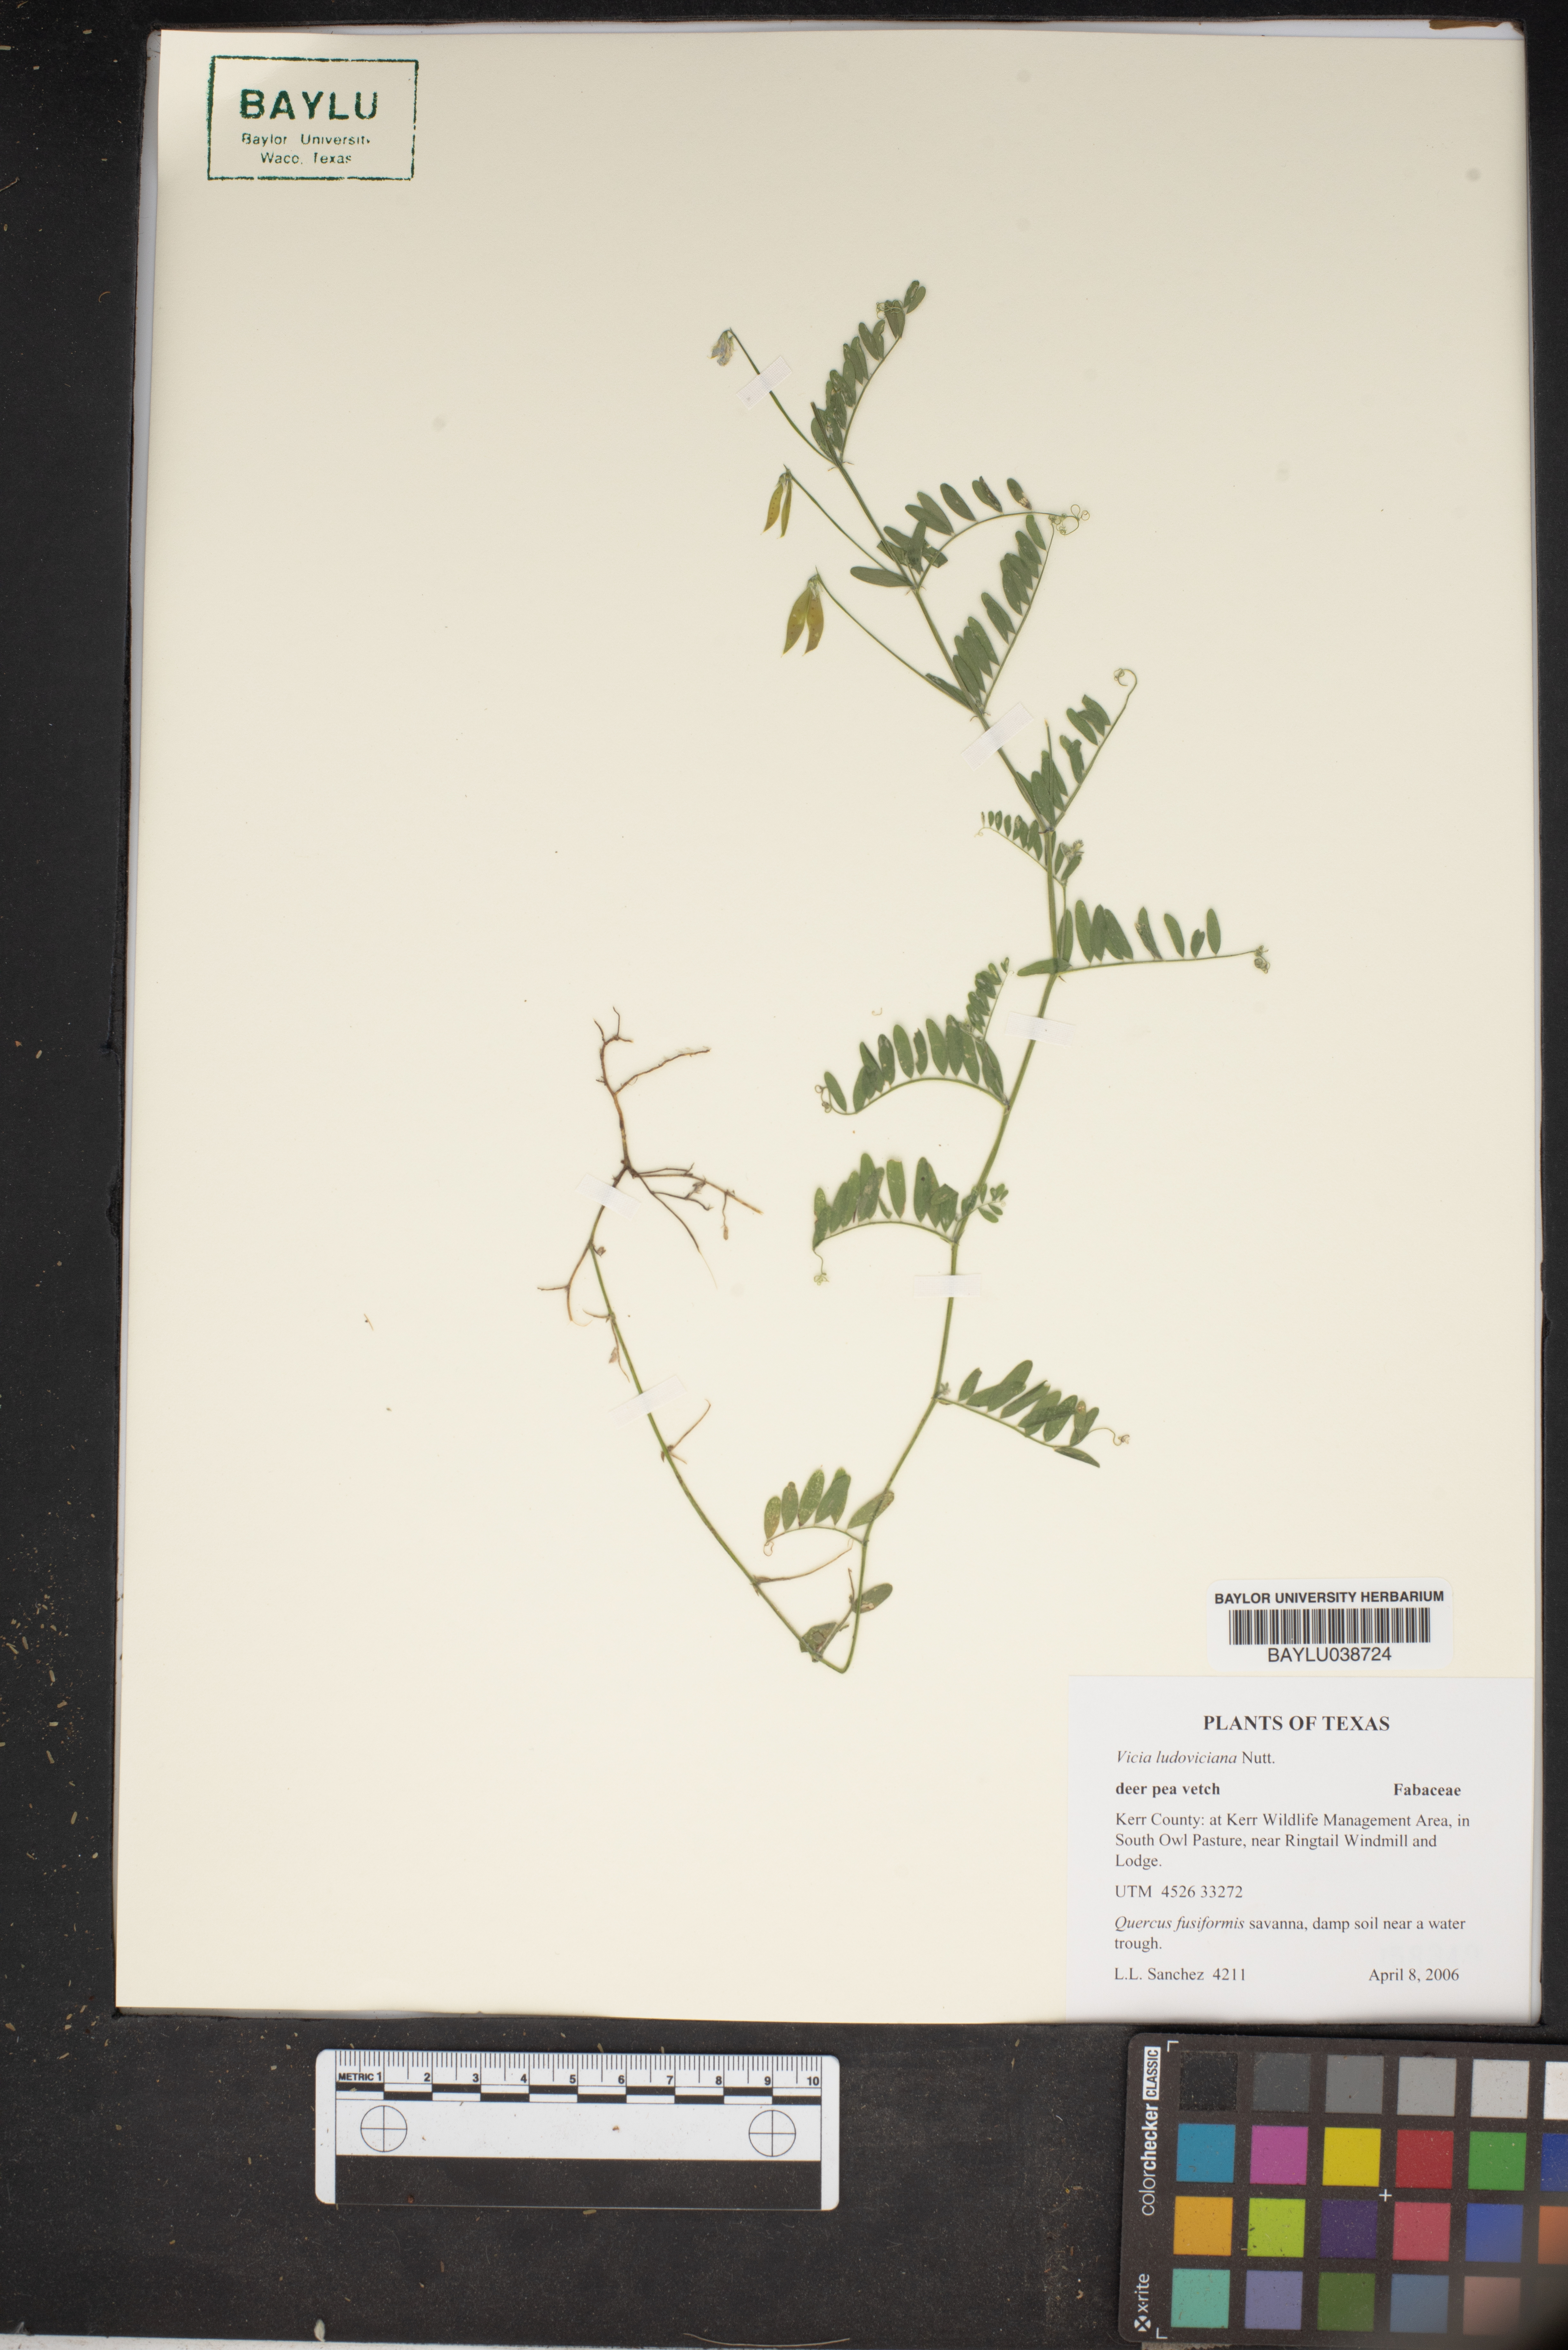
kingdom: Plantae
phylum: Tracheophyta
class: Magnoliopsida
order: Fabales
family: Fabaceae
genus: Vicia
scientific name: Vicia ludoviciana
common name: Louisiana vetch
